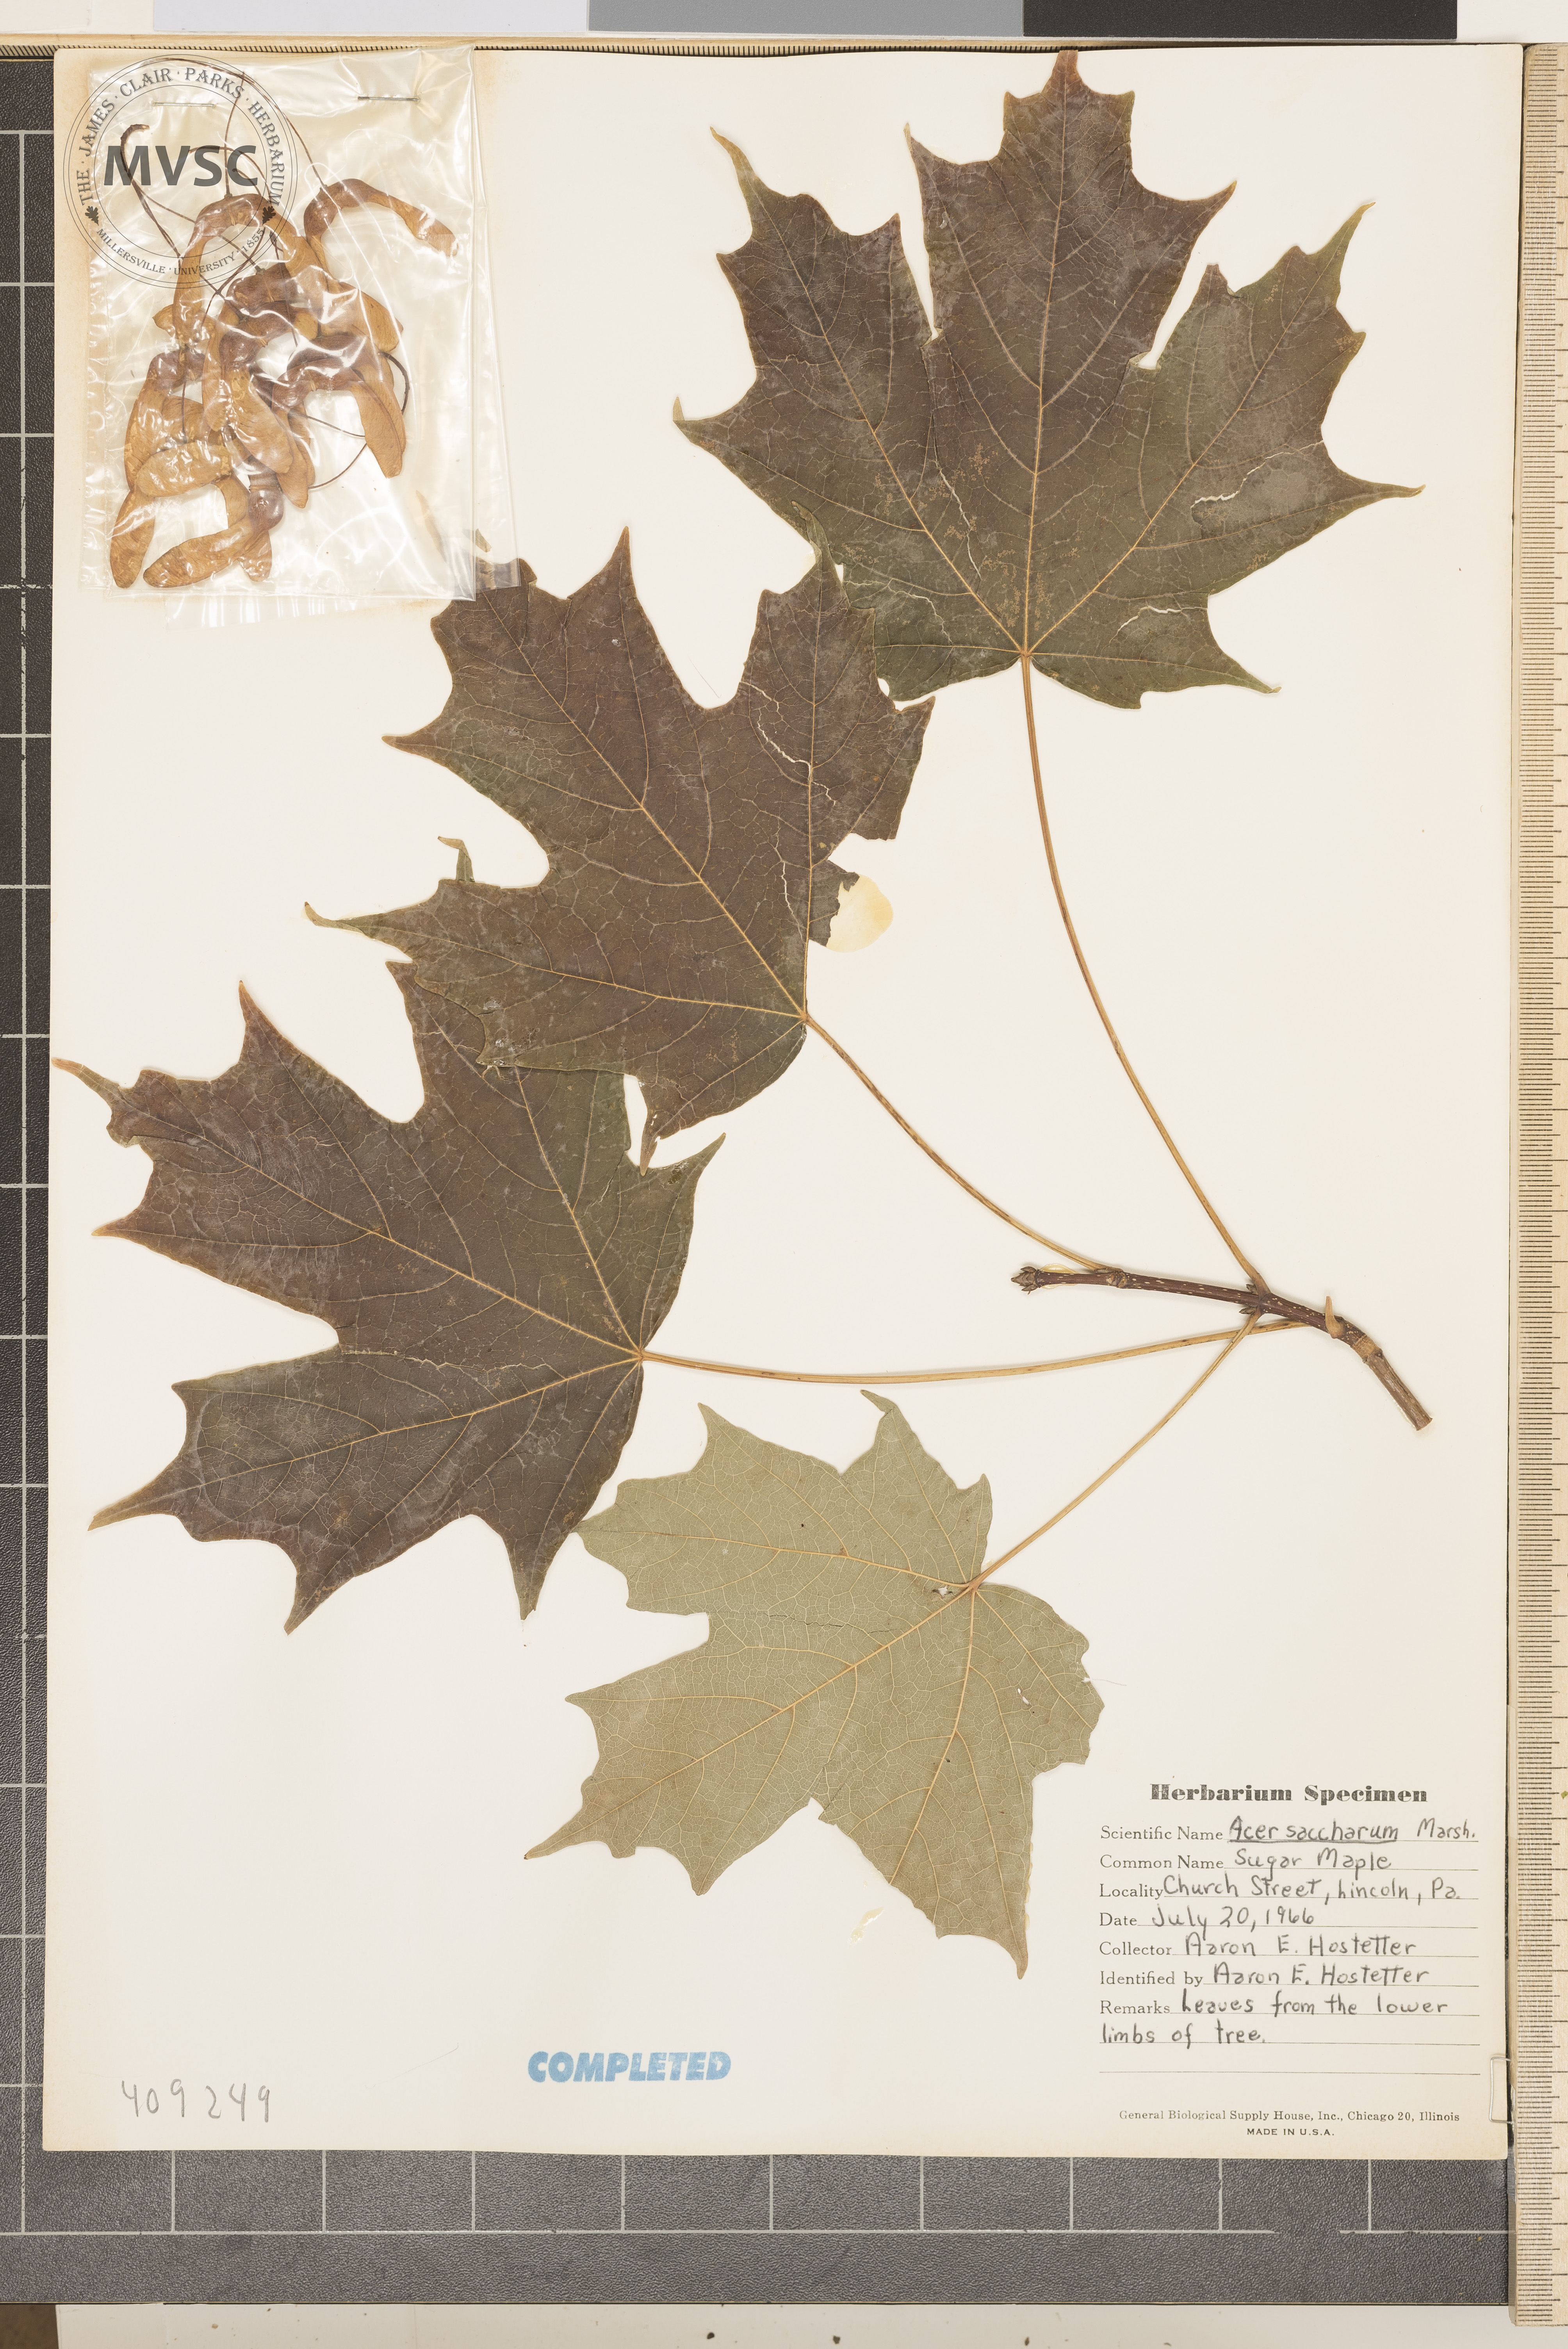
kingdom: Plantae
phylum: Tracheophyta
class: Magnoliopsida
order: Sapindales
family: Sapindaceae
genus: Acer
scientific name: Acer saccharum
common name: Sugar maple
